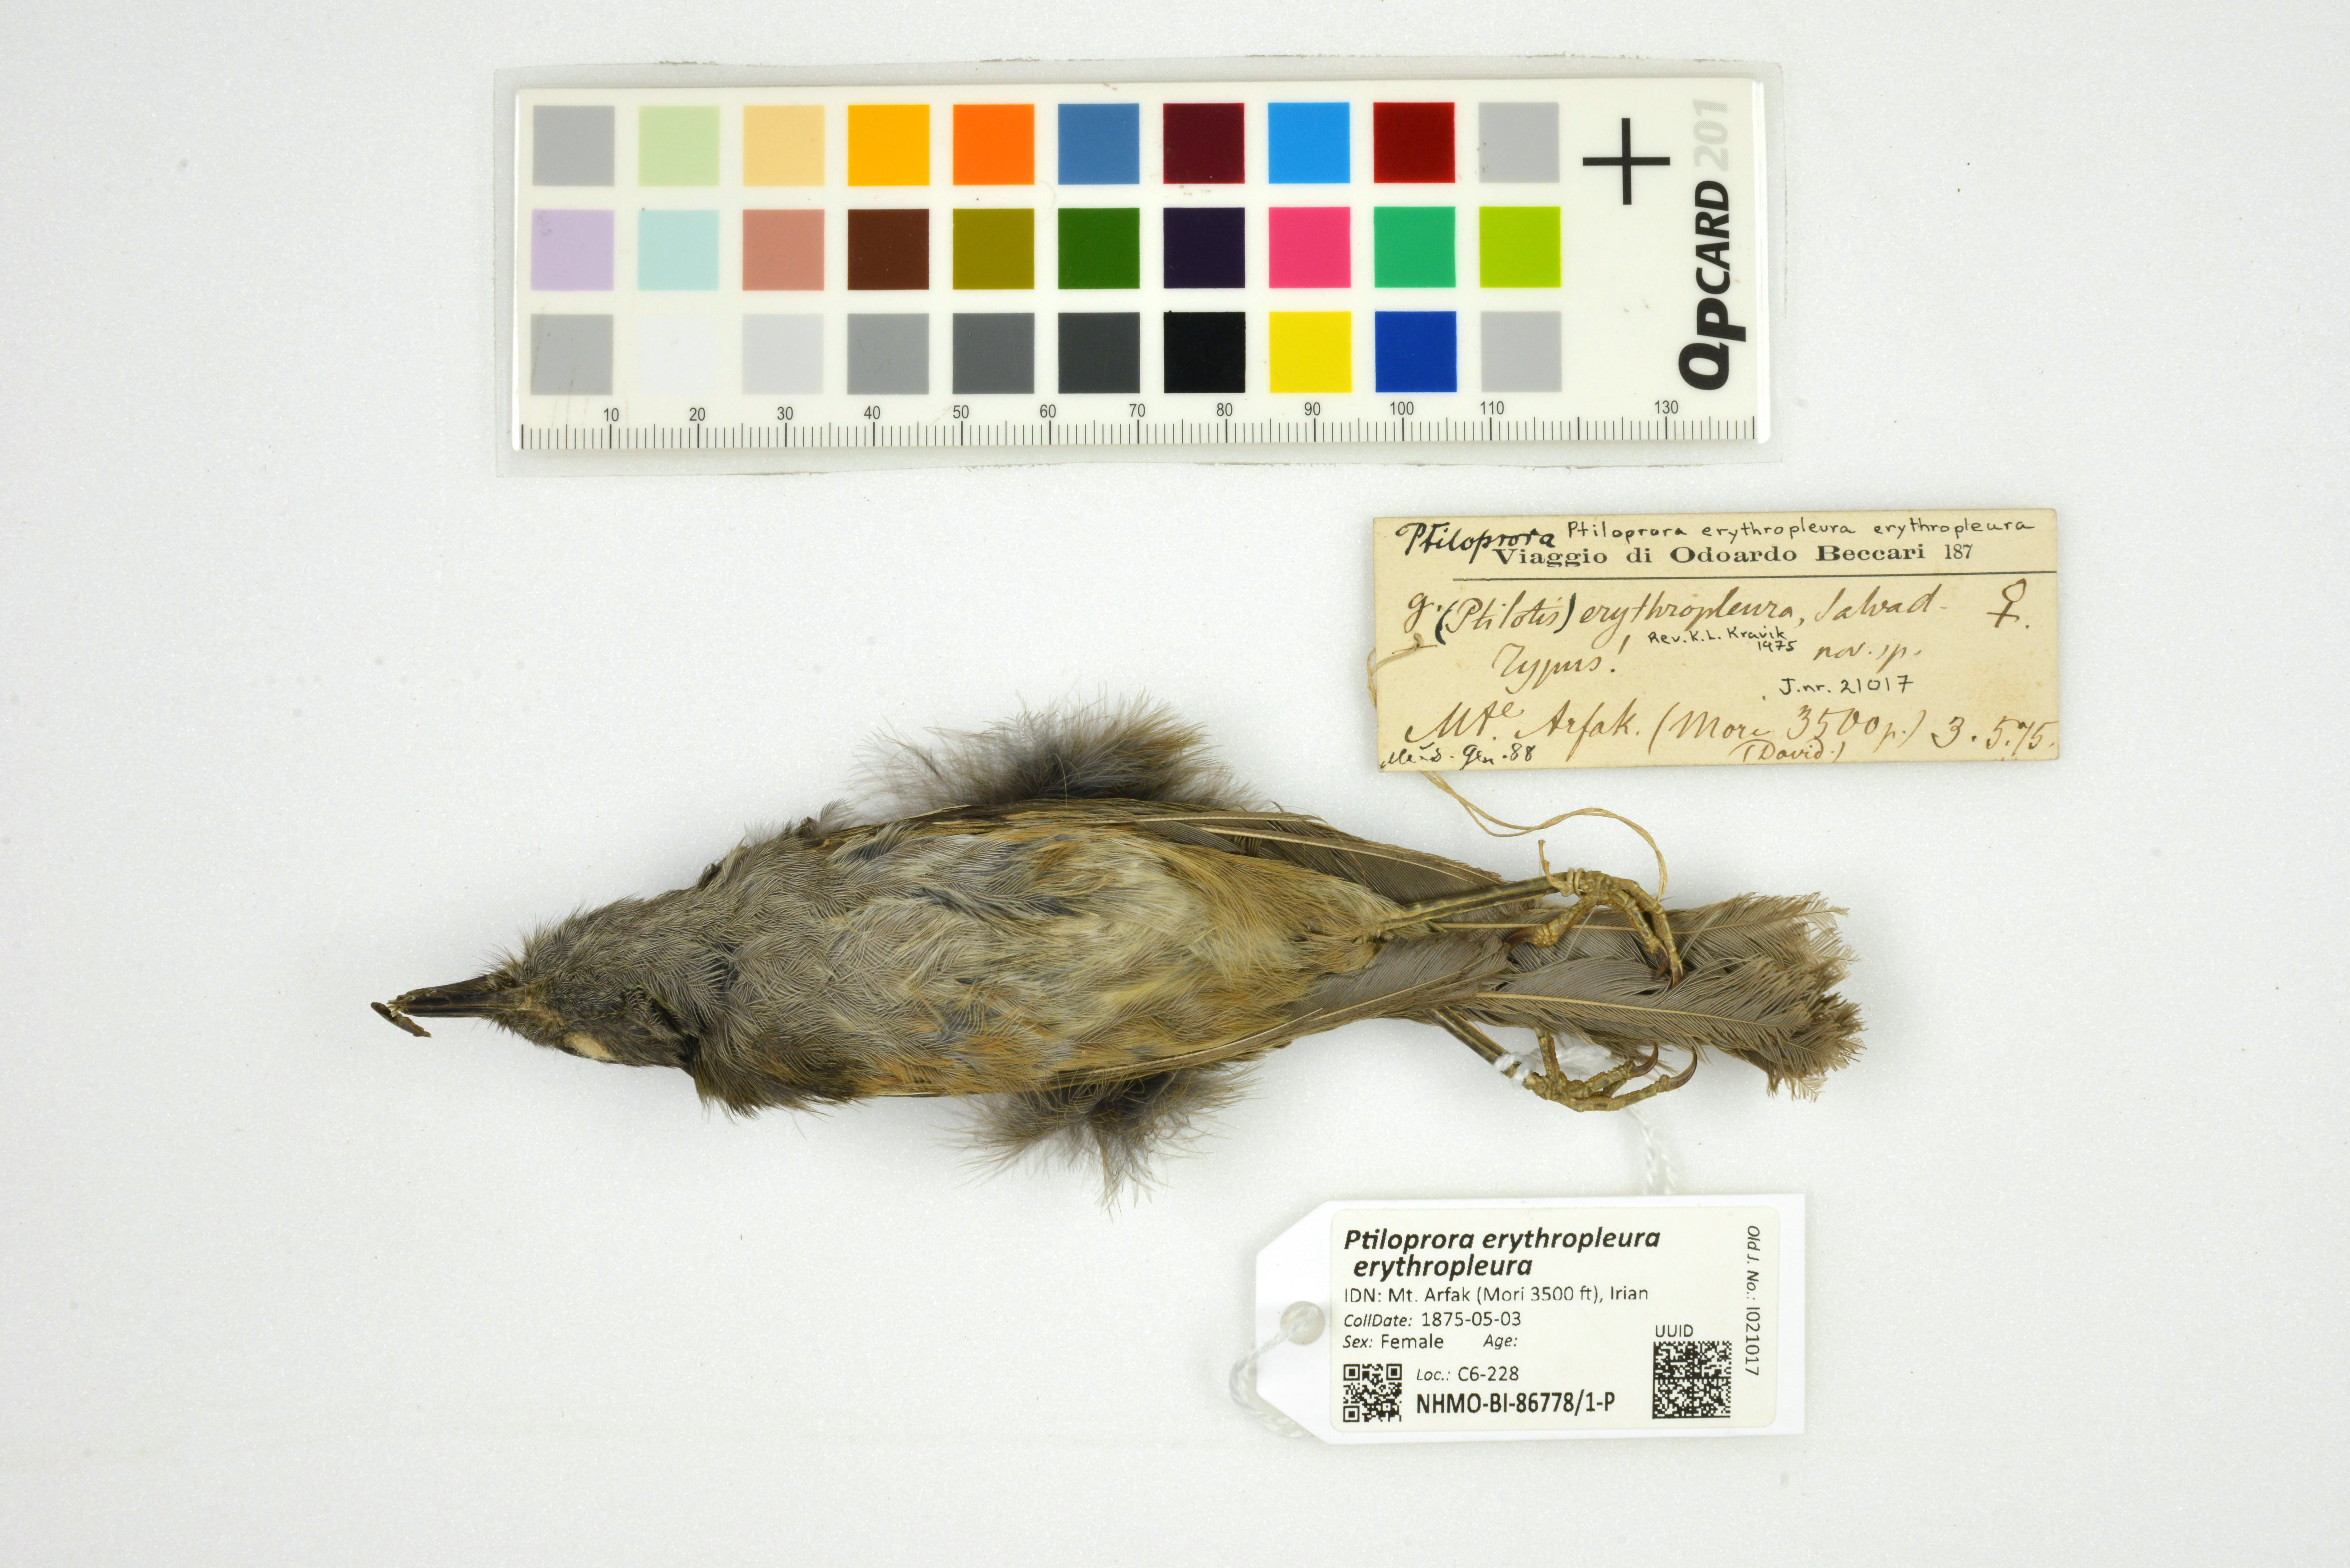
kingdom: Animalia
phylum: Chordata
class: Aves
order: Passeriformes
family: Meliphagidae
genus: Ptiloprora
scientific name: Ptiloprora erythropleura
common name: Rufous-sided honeyeater
